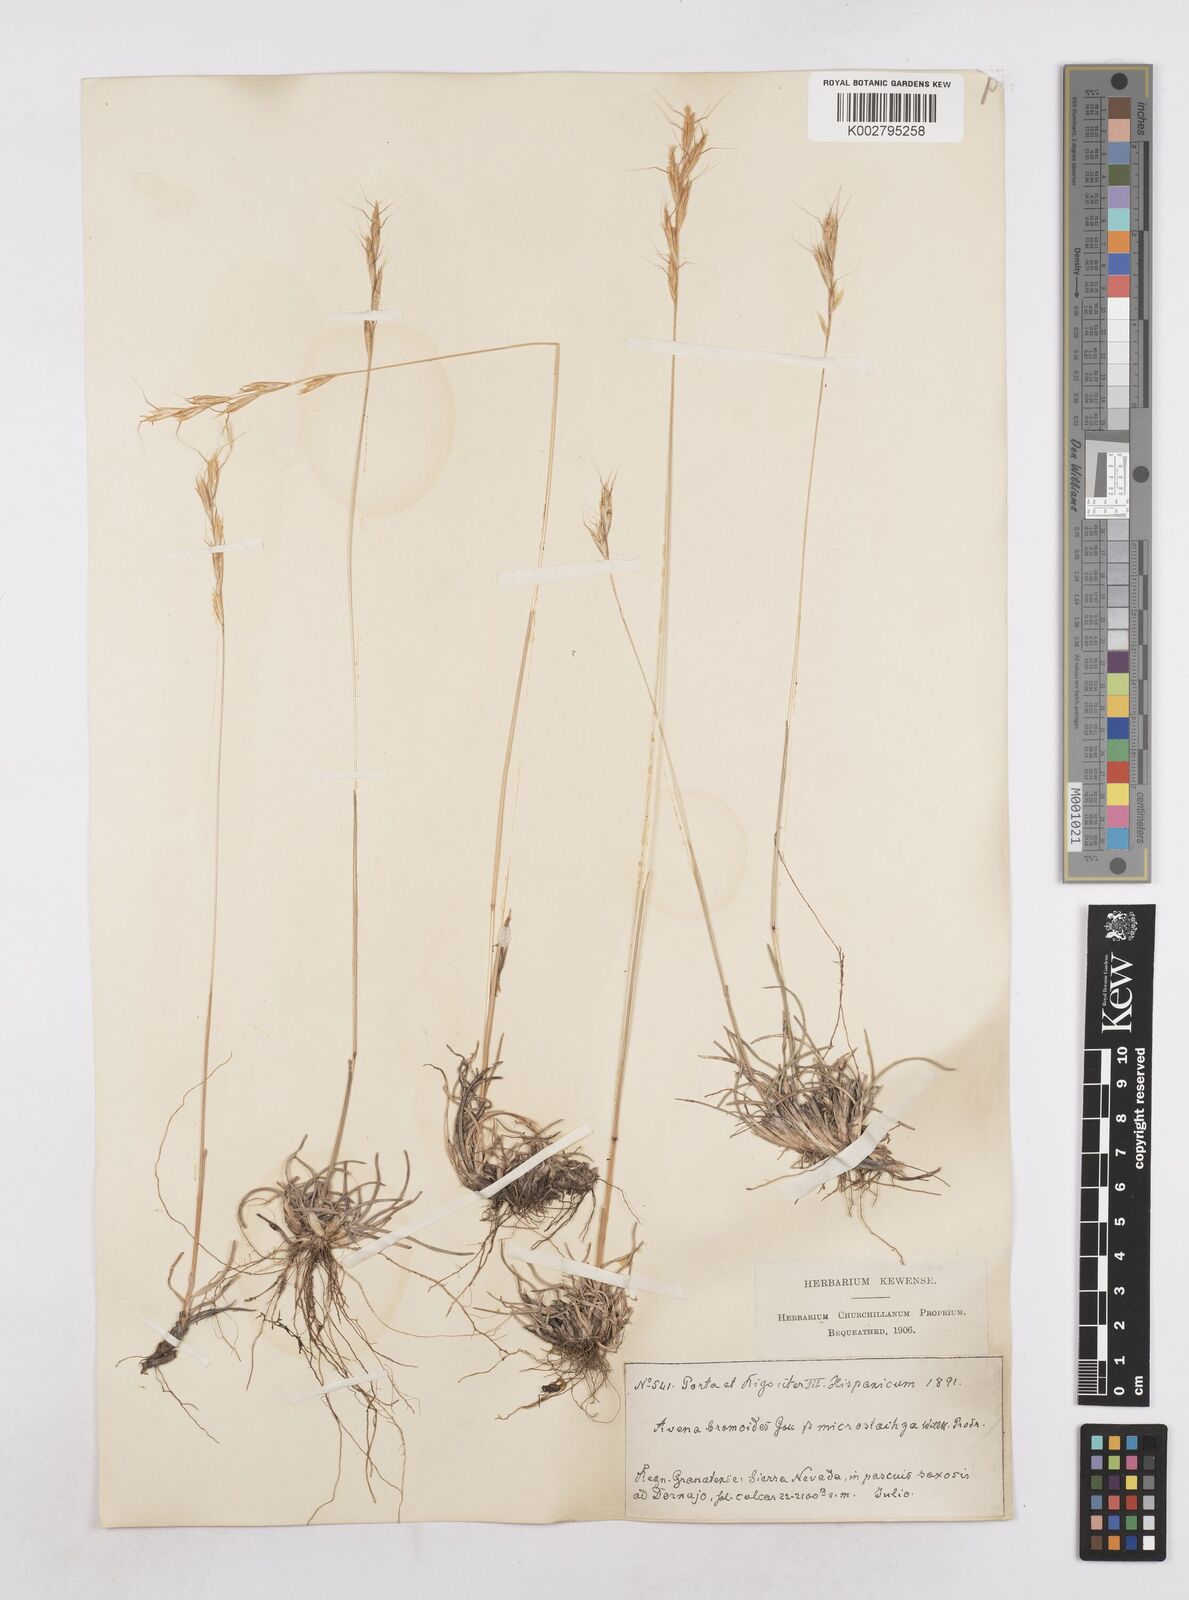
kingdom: Plantae
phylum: Tracheophyta
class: Liliopsida
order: Poales
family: Poaceae
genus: Helictochloa
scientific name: Helictochloa bromoides
